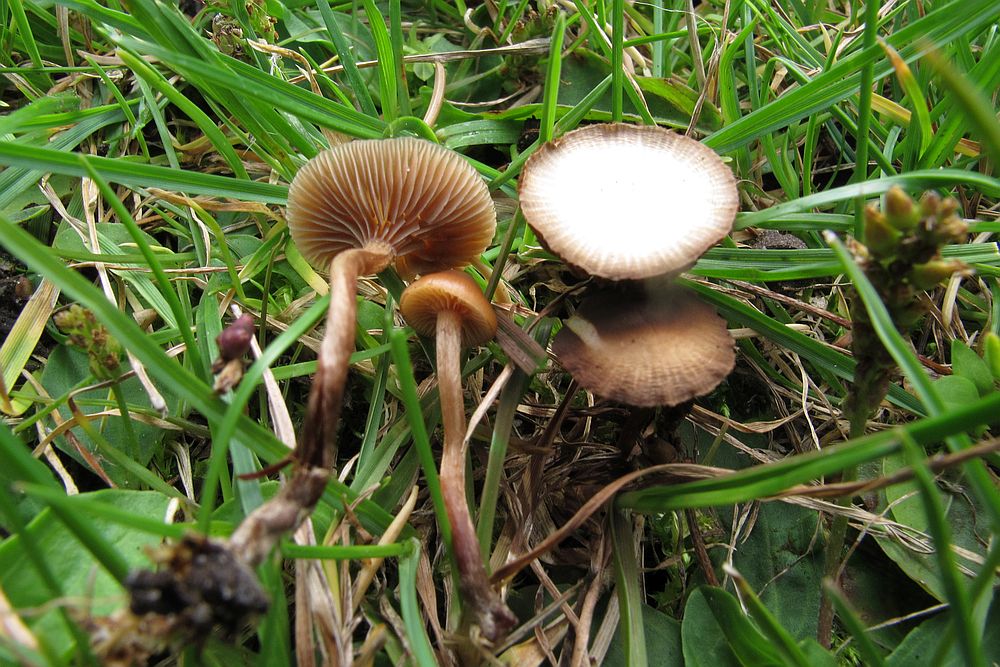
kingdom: Fungi
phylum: Basidiomycota
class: Agaricomycetes
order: Agaricales
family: Strophariaceae
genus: Deconica
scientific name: Deconica inquilina
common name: græs-stråhat
